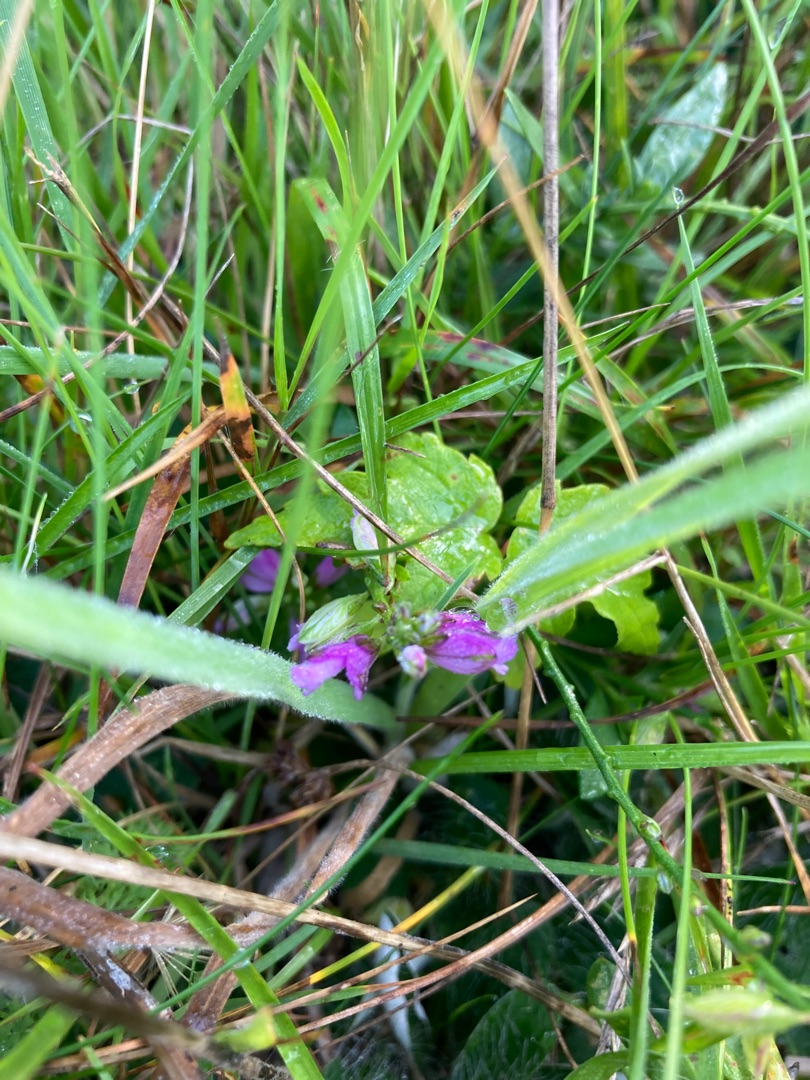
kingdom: Plantae
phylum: Tracheophyta
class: Magnoliopsida
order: Fabales
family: Polygalaceae
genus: Polygala
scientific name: Polygala vulgaris
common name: Almindelig mælkeurt
